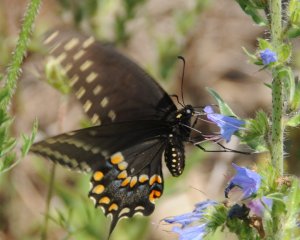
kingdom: Animalia
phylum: Arthropoda
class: Insecta
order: Lepidoptera
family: Papilionidae
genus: Papilio
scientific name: Papilio polyxenes
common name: Black Swallowtail
